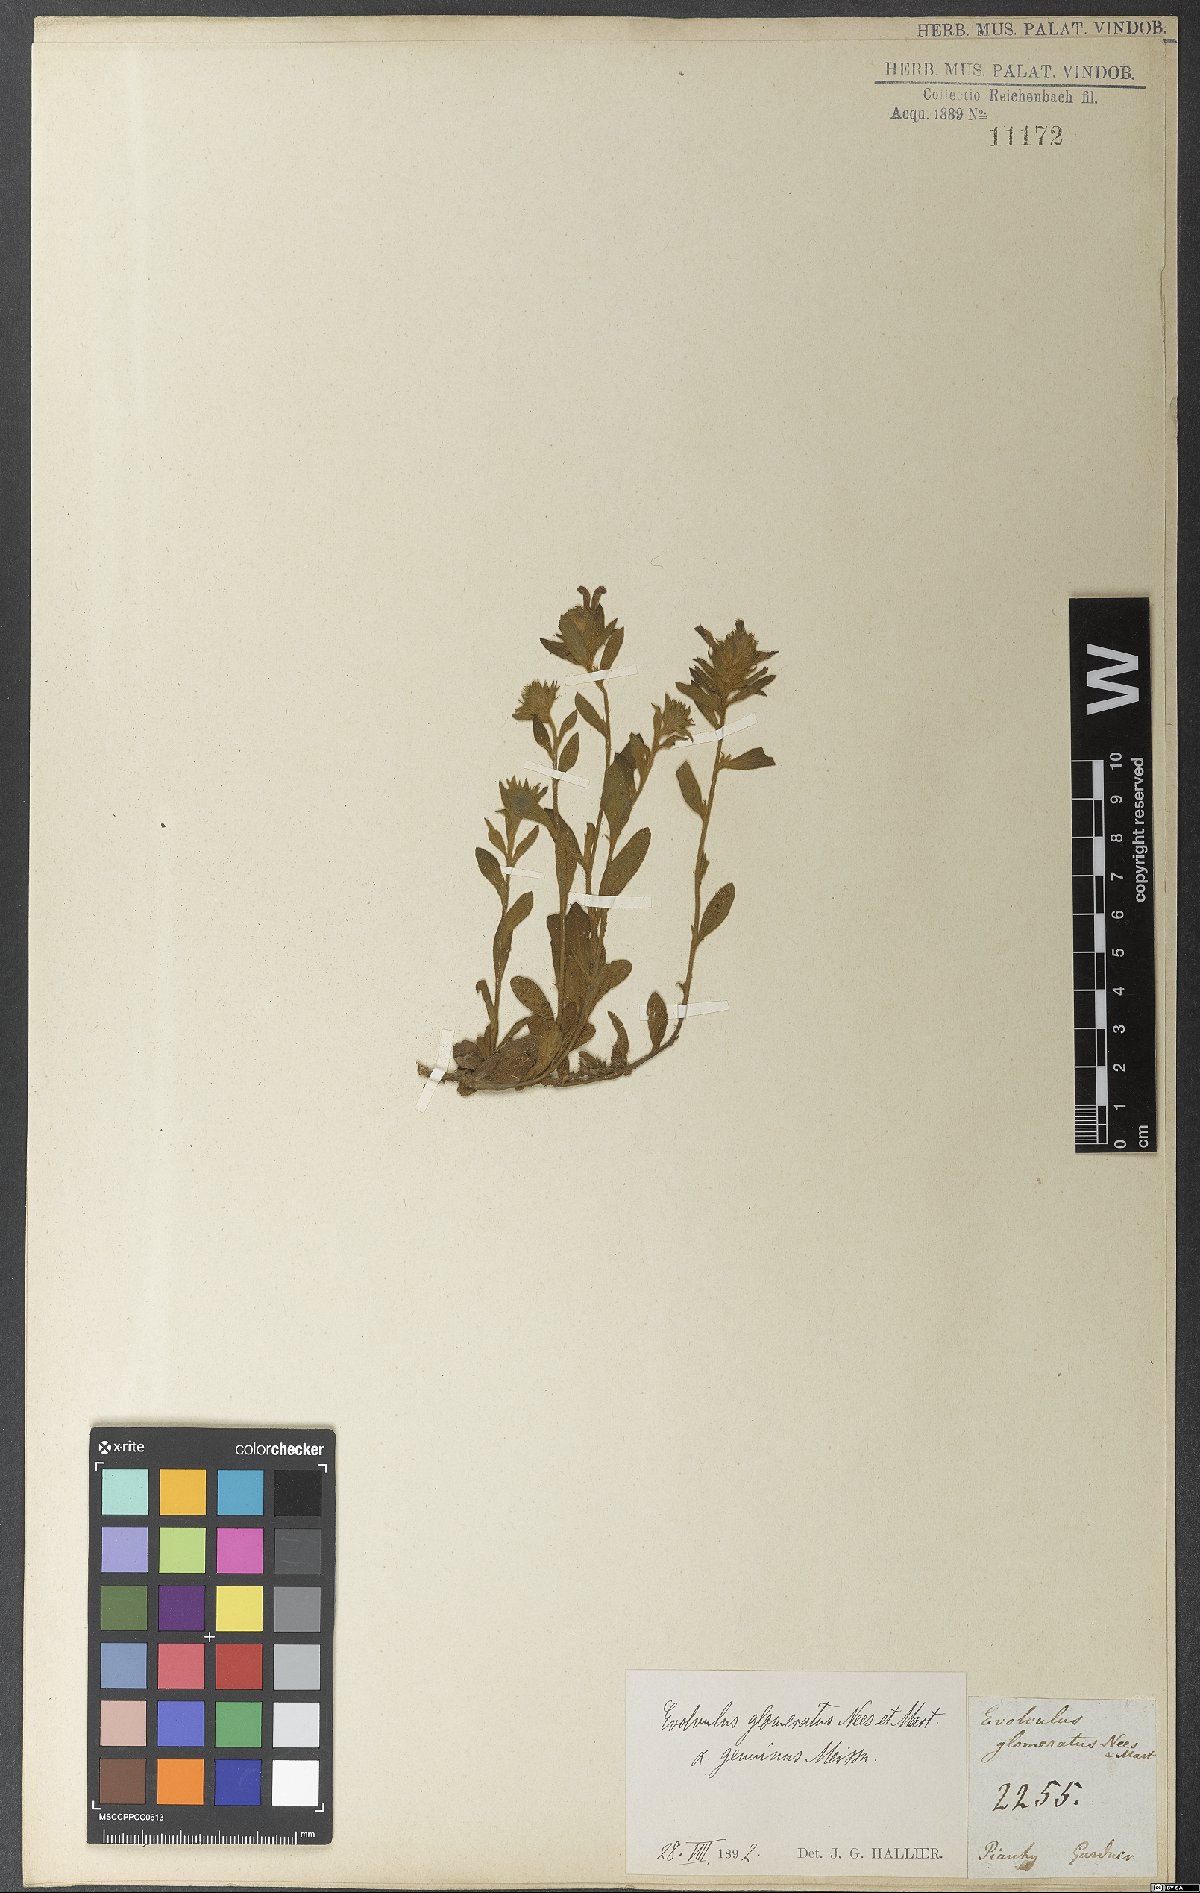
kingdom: Plantae
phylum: Tracheophyta
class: Magnoliopsida
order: Solanales
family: Convolvulaceae
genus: Evolvulus
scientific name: Evolvulus glomeratus
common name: Brazilian dwarf morning-glory
